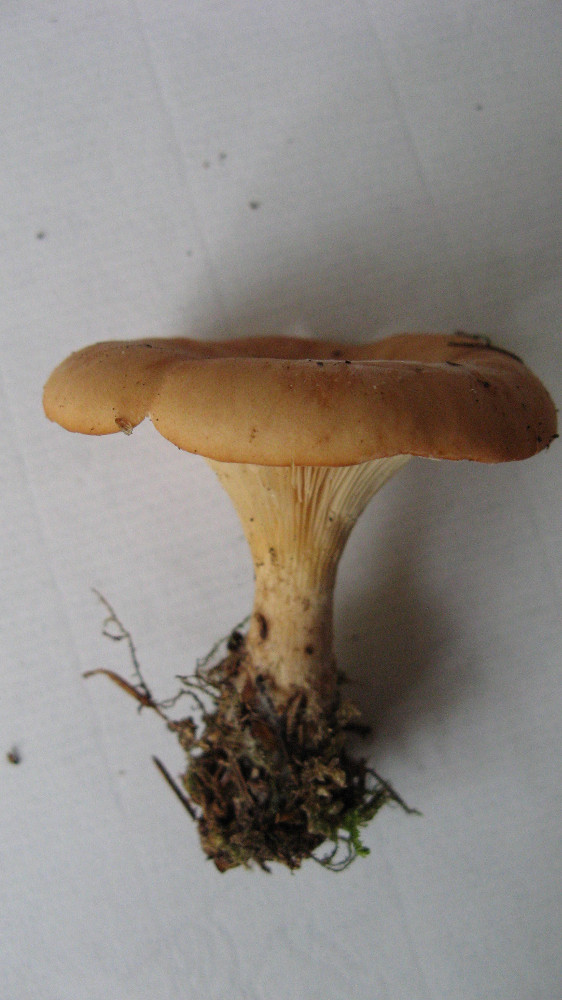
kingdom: Fungi
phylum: Basidiomycota
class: Agaricomycetes
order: Agaricales
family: Tricholomataceae
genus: Paralepista
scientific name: Paralepista flaccida
